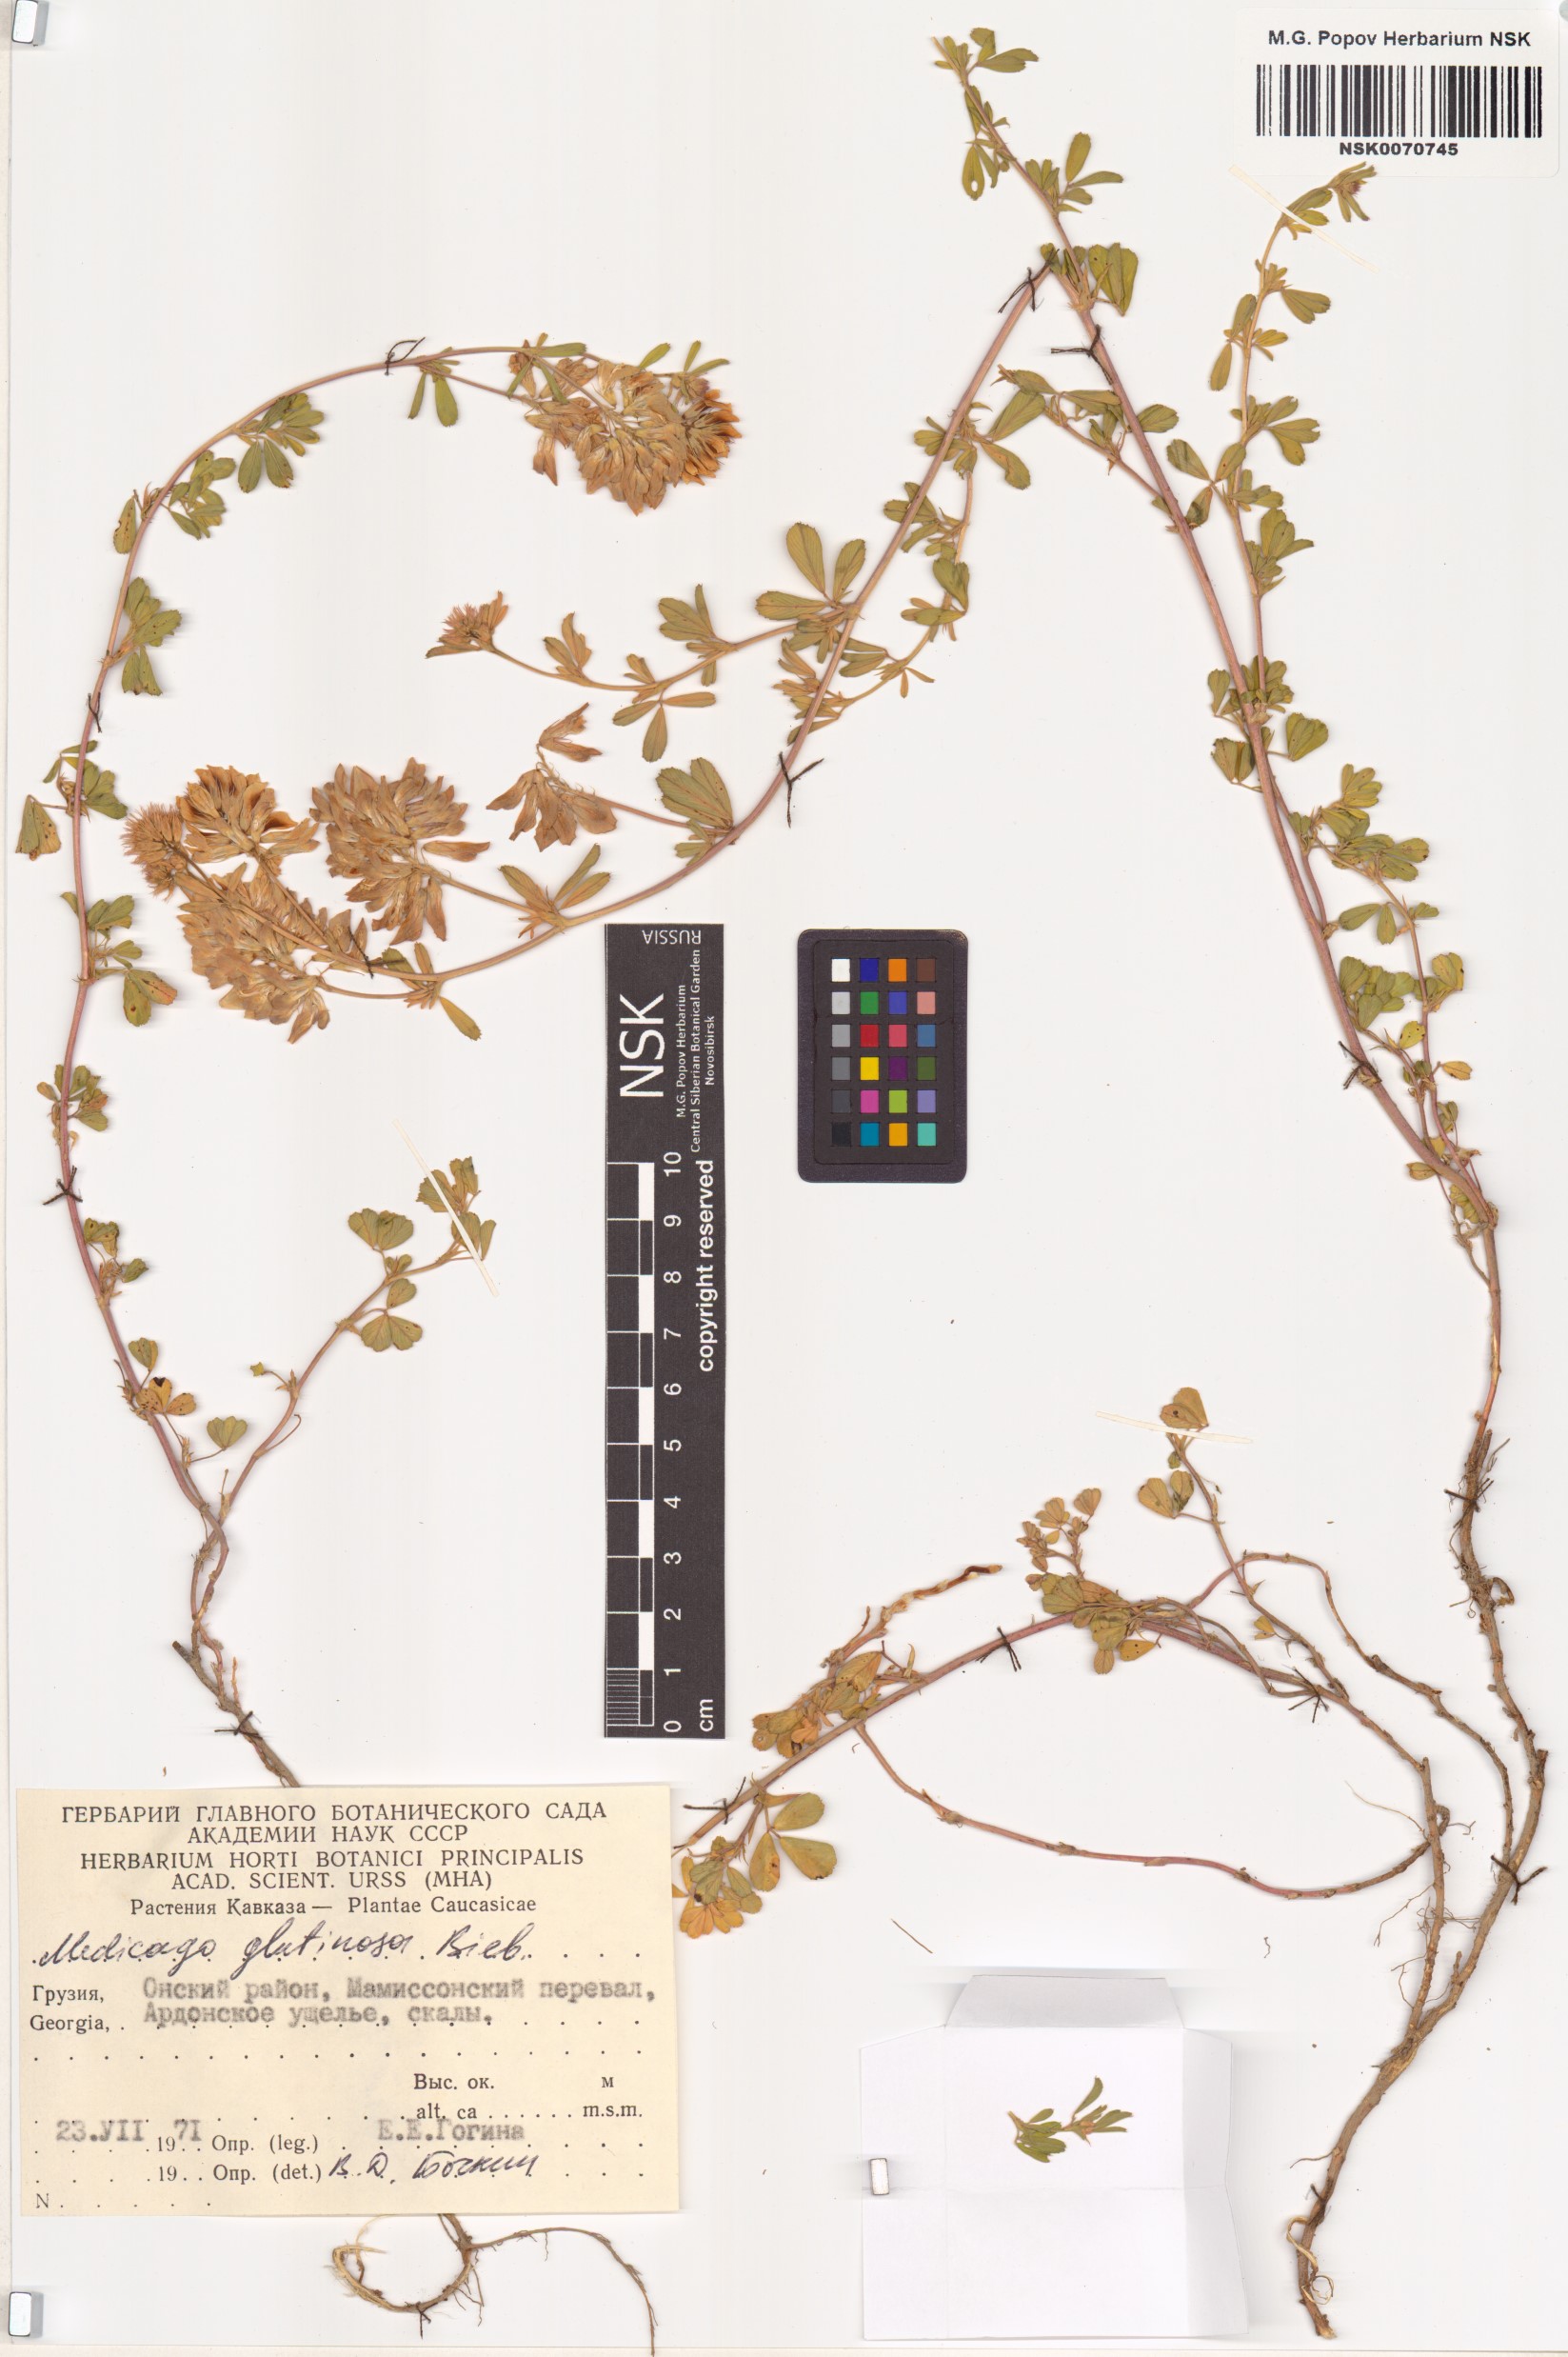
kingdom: Plantae
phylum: Tracheophyta
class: Magnoliopsida
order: Fabales
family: Fabaceae
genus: Medicago
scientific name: Medicago sativa
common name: Alfalfa
